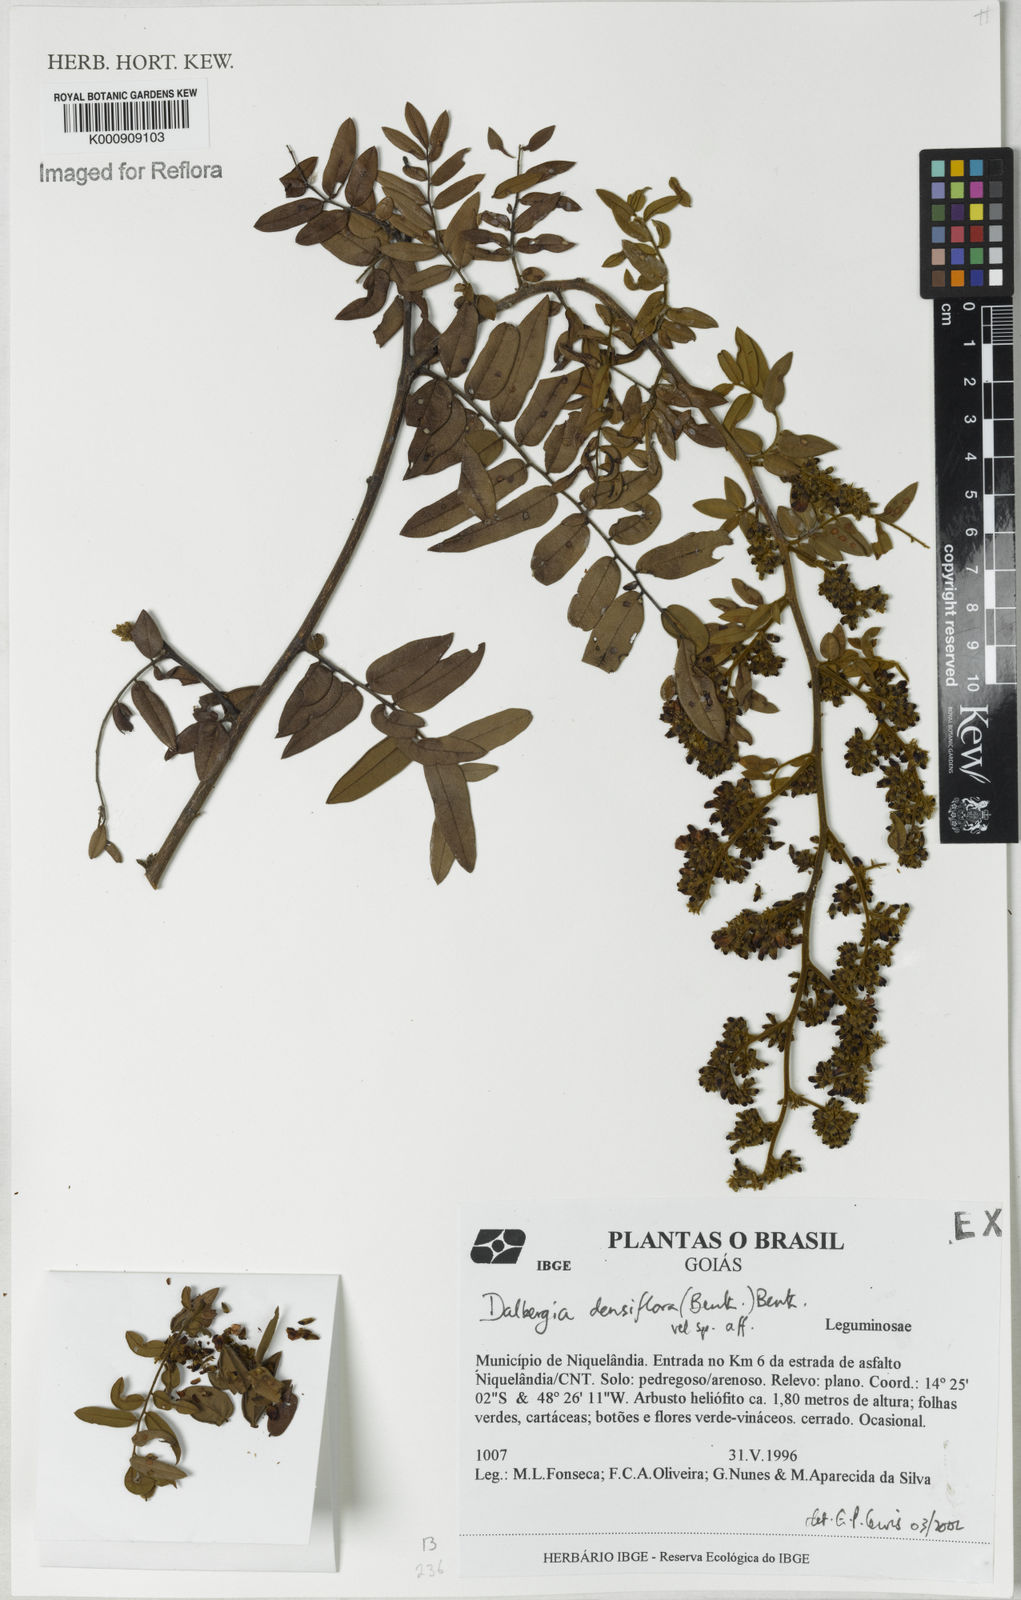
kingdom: Plantae
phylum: Tracheophyta
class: Magnoliopsida
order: Fabales
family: Fabaceae
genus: Dalbergia
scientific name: Dalbergia densiflora
